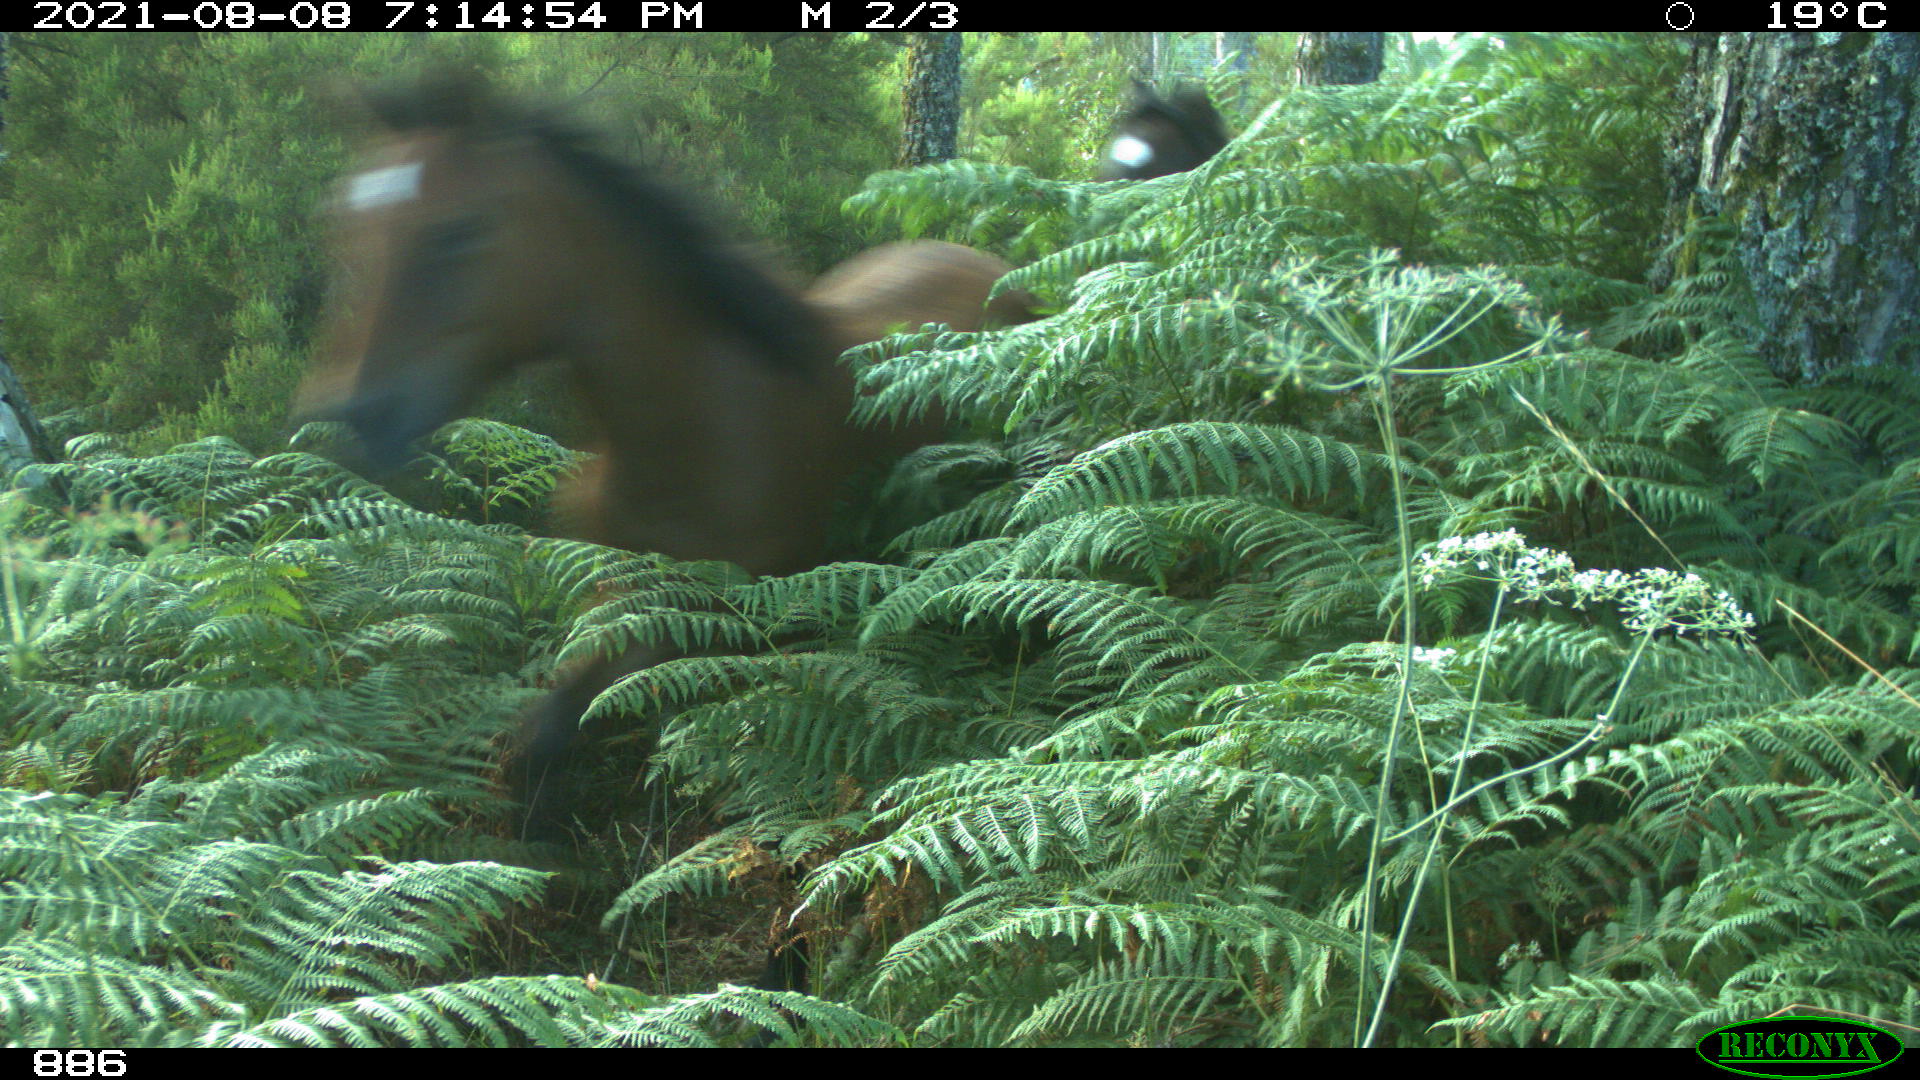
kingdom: Animalia
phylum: Chordata
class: Mammalia
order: Perissodactyla
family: Equidae
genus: Equus
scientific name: Equus caballus
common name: Horse
